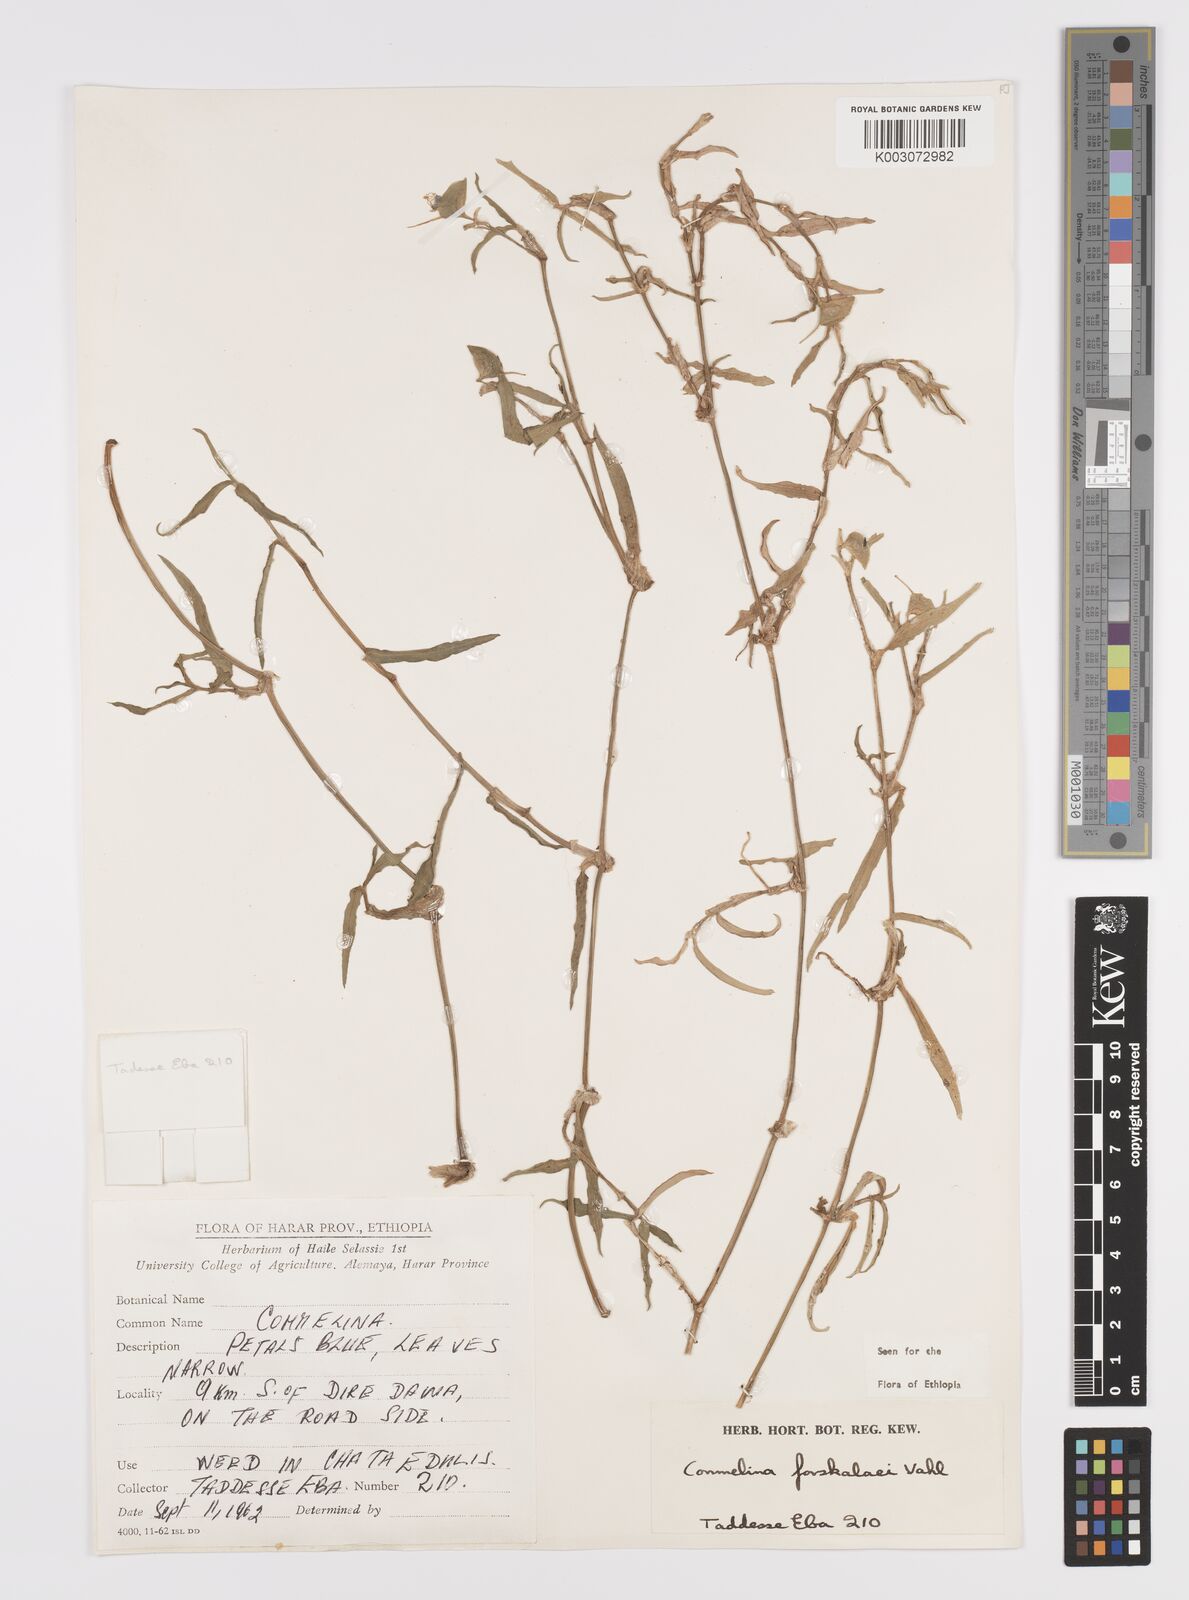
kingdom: Plantae
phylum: Tracheophyta
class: Liliopsida
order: Commelinales
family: Commelinaceae
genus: Commelina
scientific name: Commelina forskaolii
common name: Rat's ear
